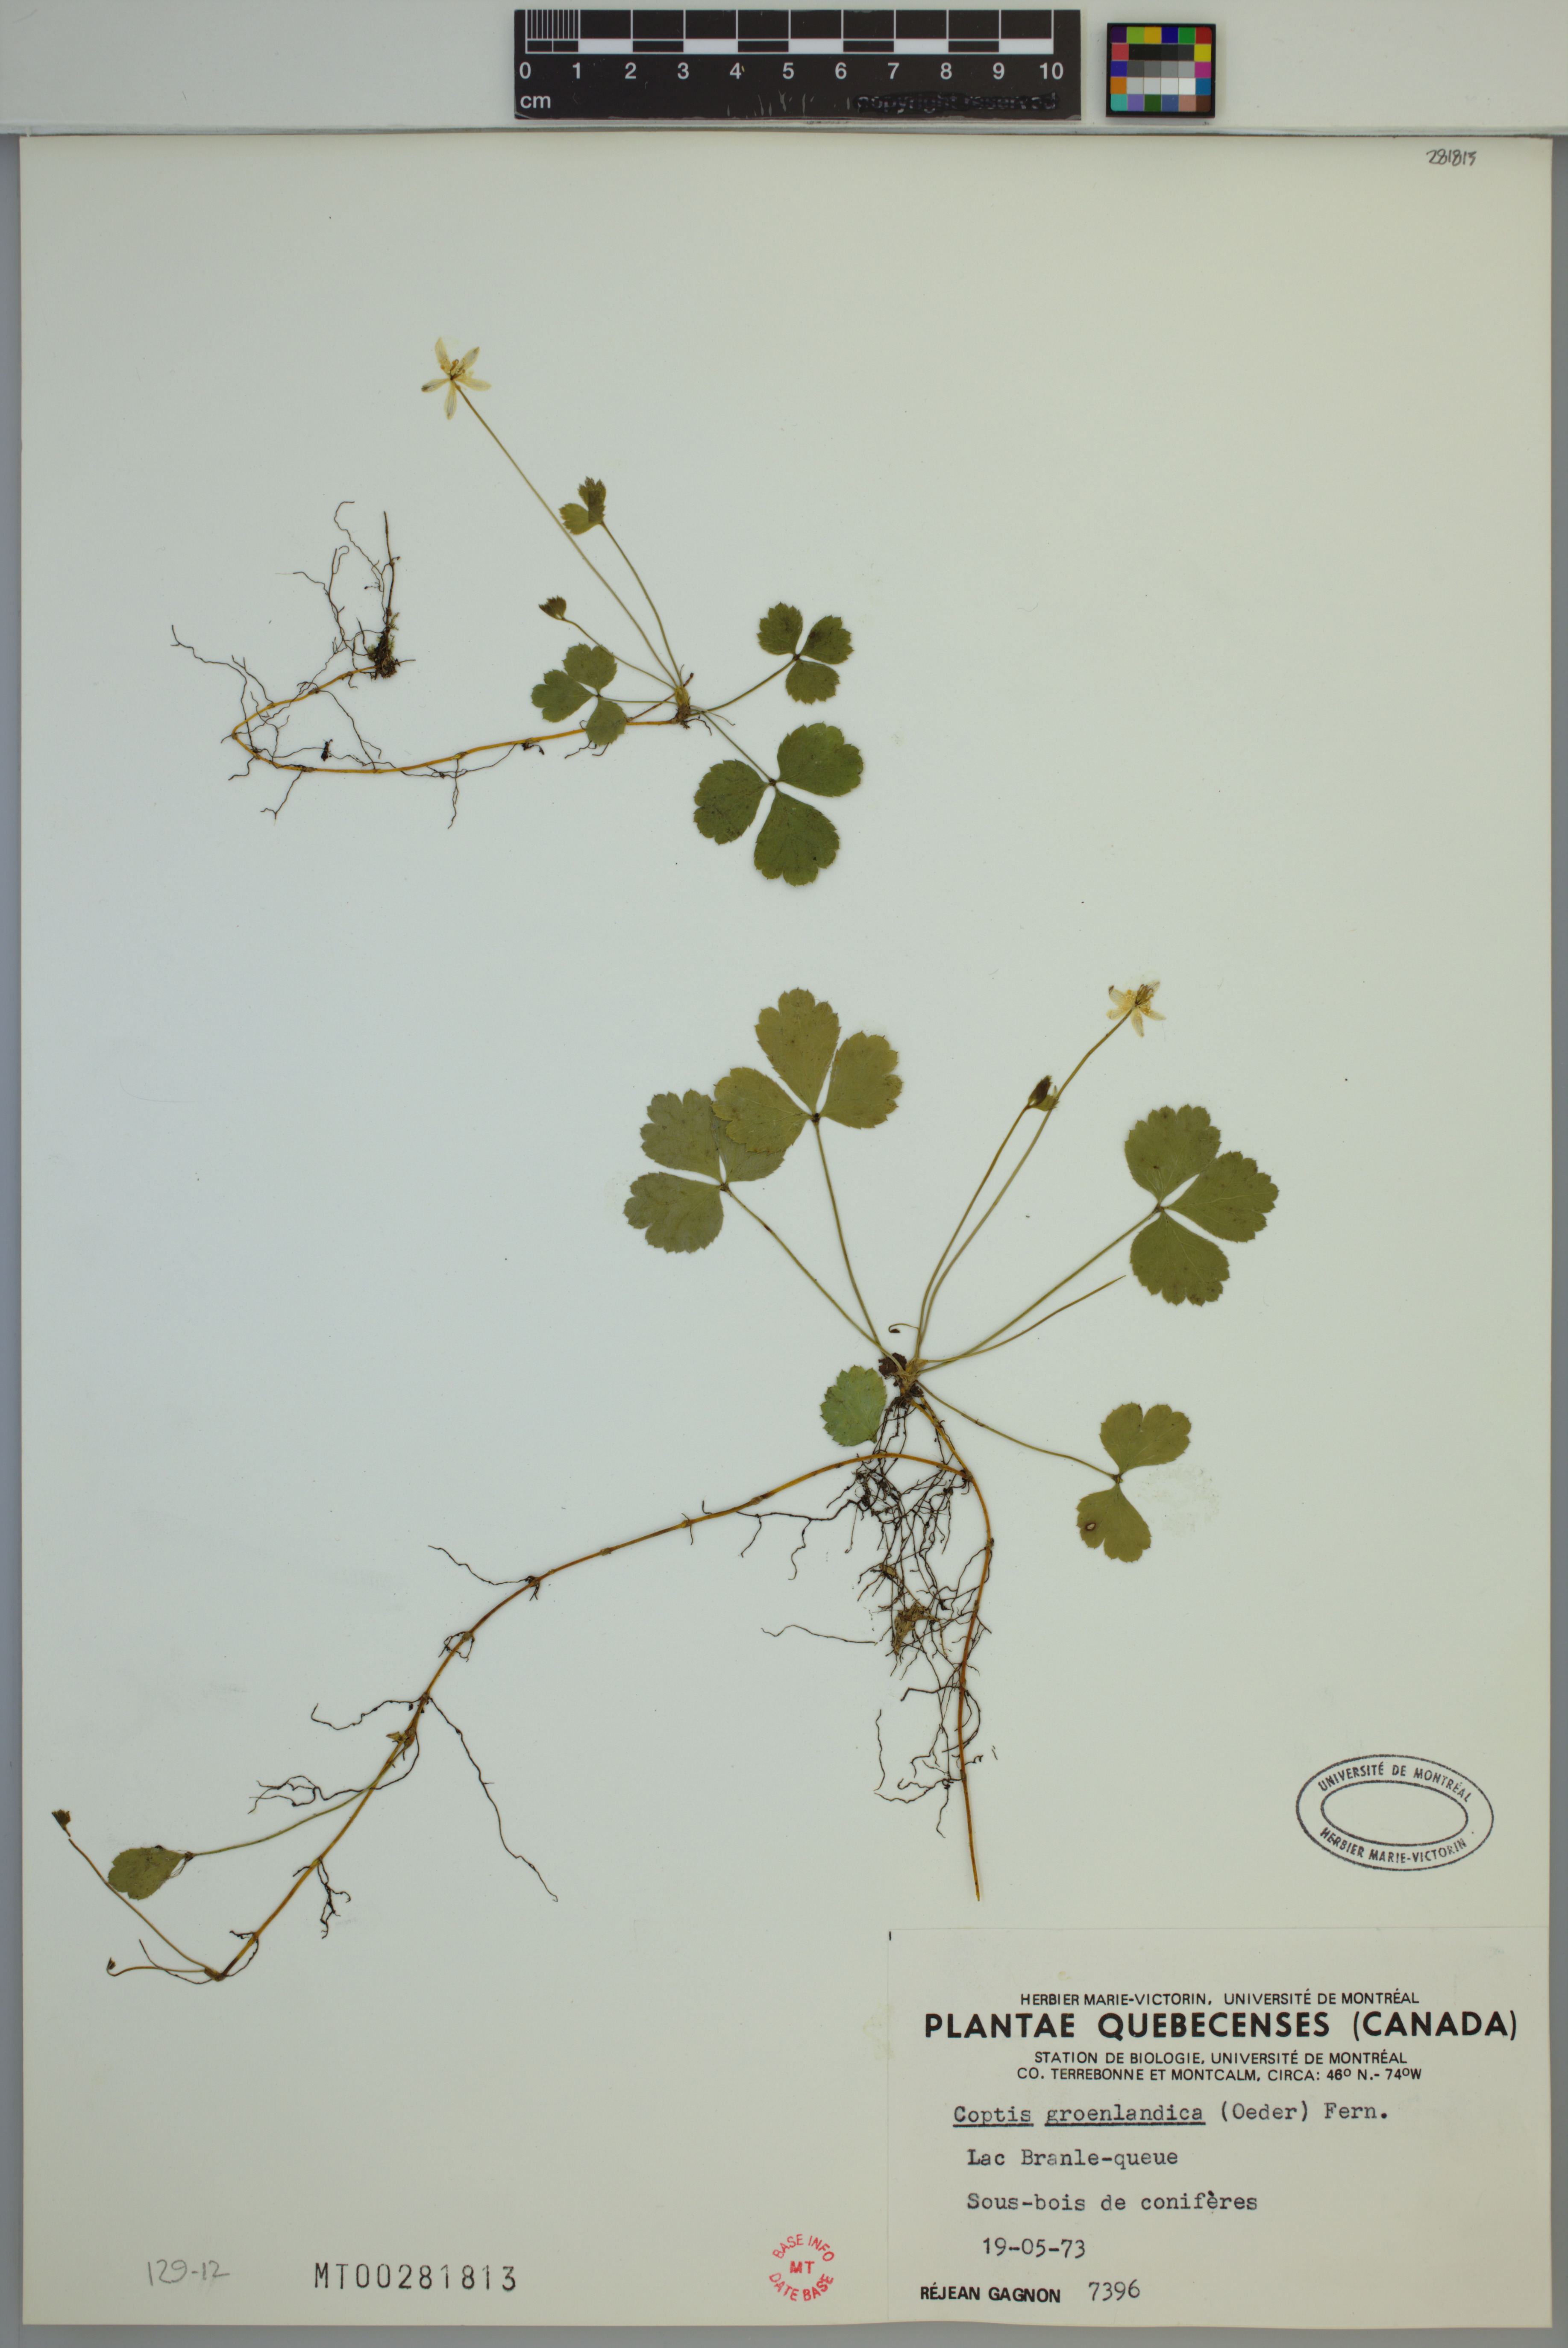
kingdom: Plantae
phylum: Tracheophyta
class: Magnoliopsida
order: Ranunculales
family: Ranunculaceae
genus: Coptis
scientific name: Coptis trifolia
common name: Canker-root
